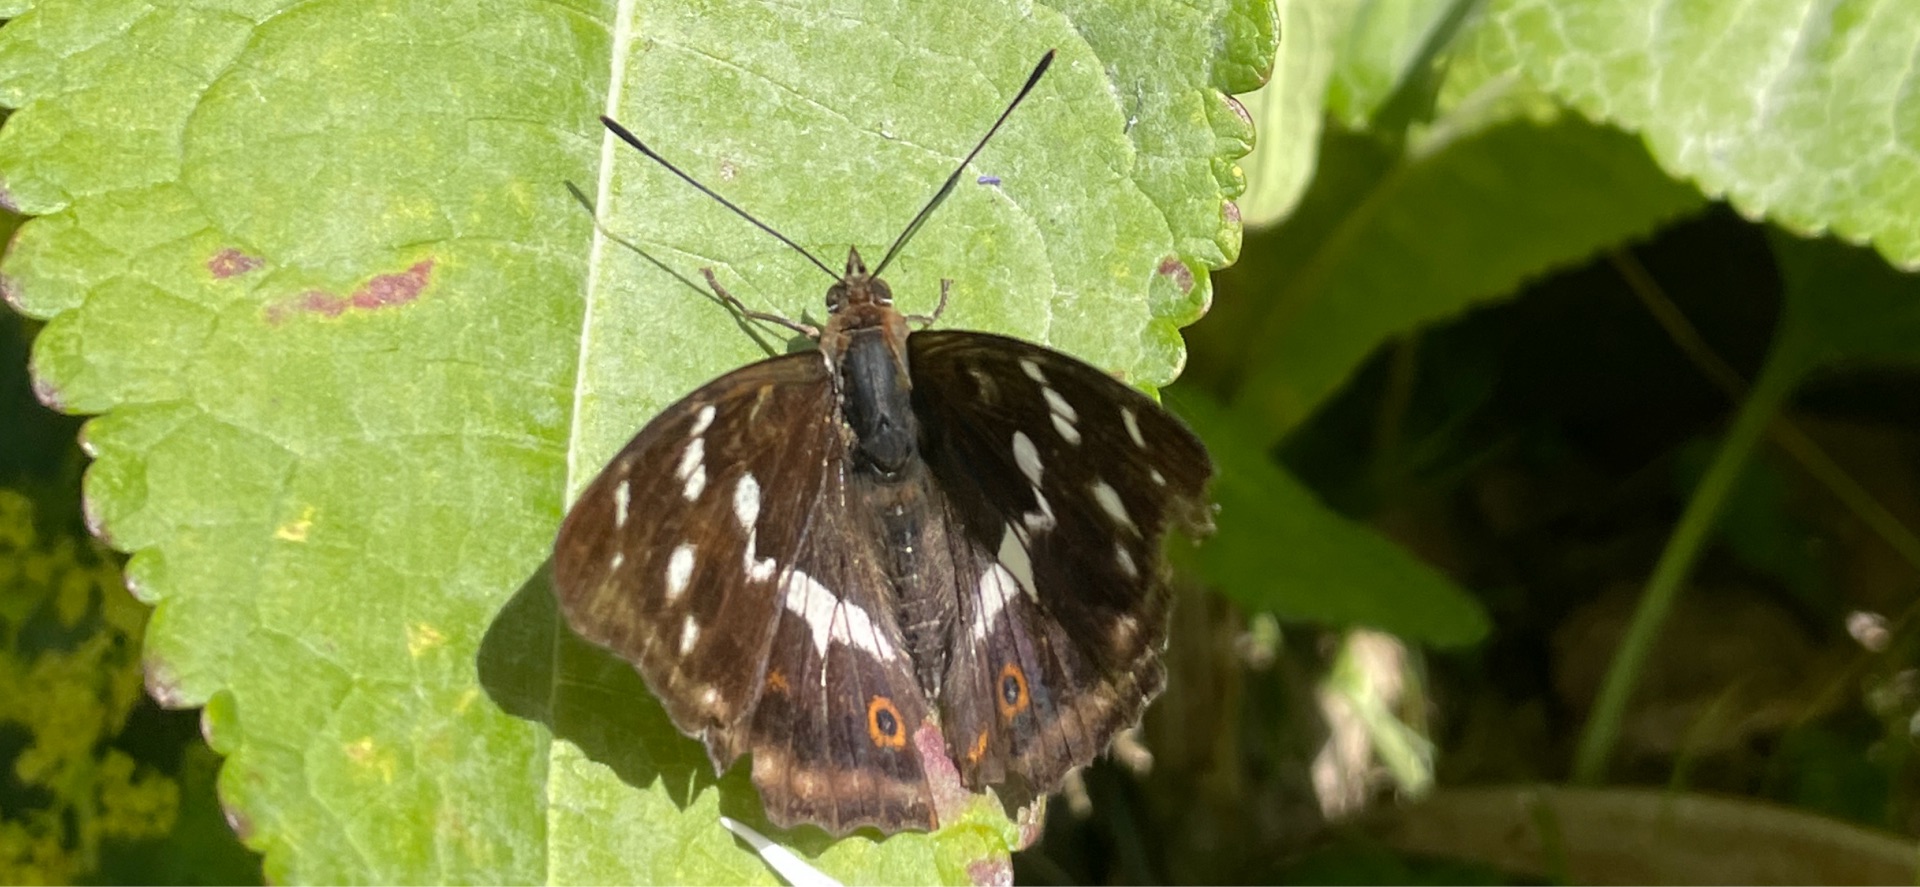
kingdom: Animalia
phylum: Arthropoda
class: Insecta
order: Lepidoptera
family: Nymphalidae
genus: Apatura
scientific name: Apatura iris
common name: Iris
